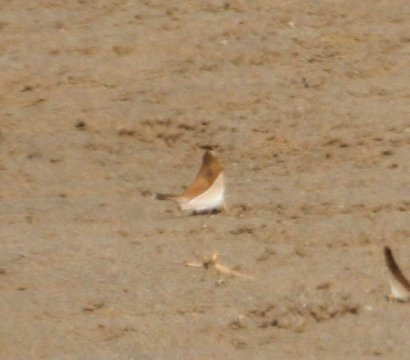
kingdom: Animalia
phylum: Arthropoda
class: Insecta
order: Lepidoptera
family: Nymphalidae
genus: Marpesia
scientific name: Marpesia zerynthia
